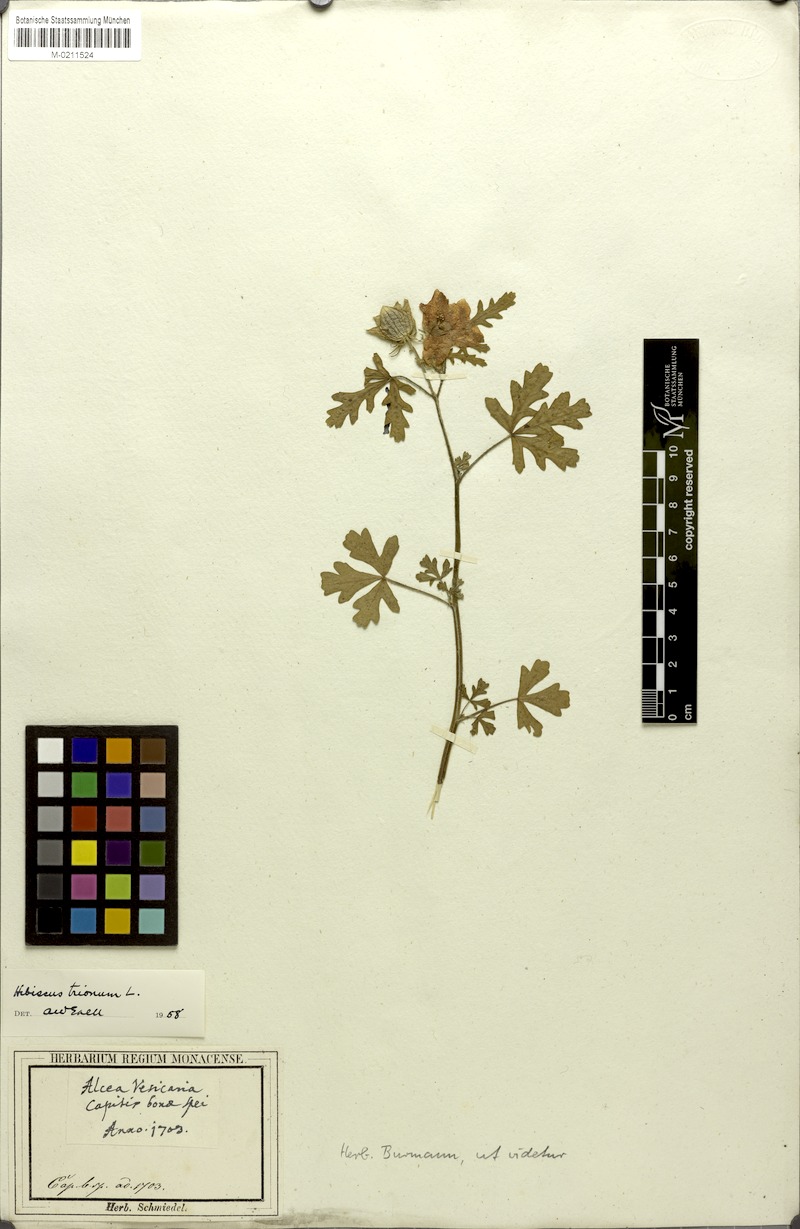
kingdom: Plantae
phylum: Tracheophyta
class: Magnoliopsida
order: Malvales
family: Malvaceae
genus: Hibiscus
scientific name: Hibiscus trionum
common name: Bladder ketmia
